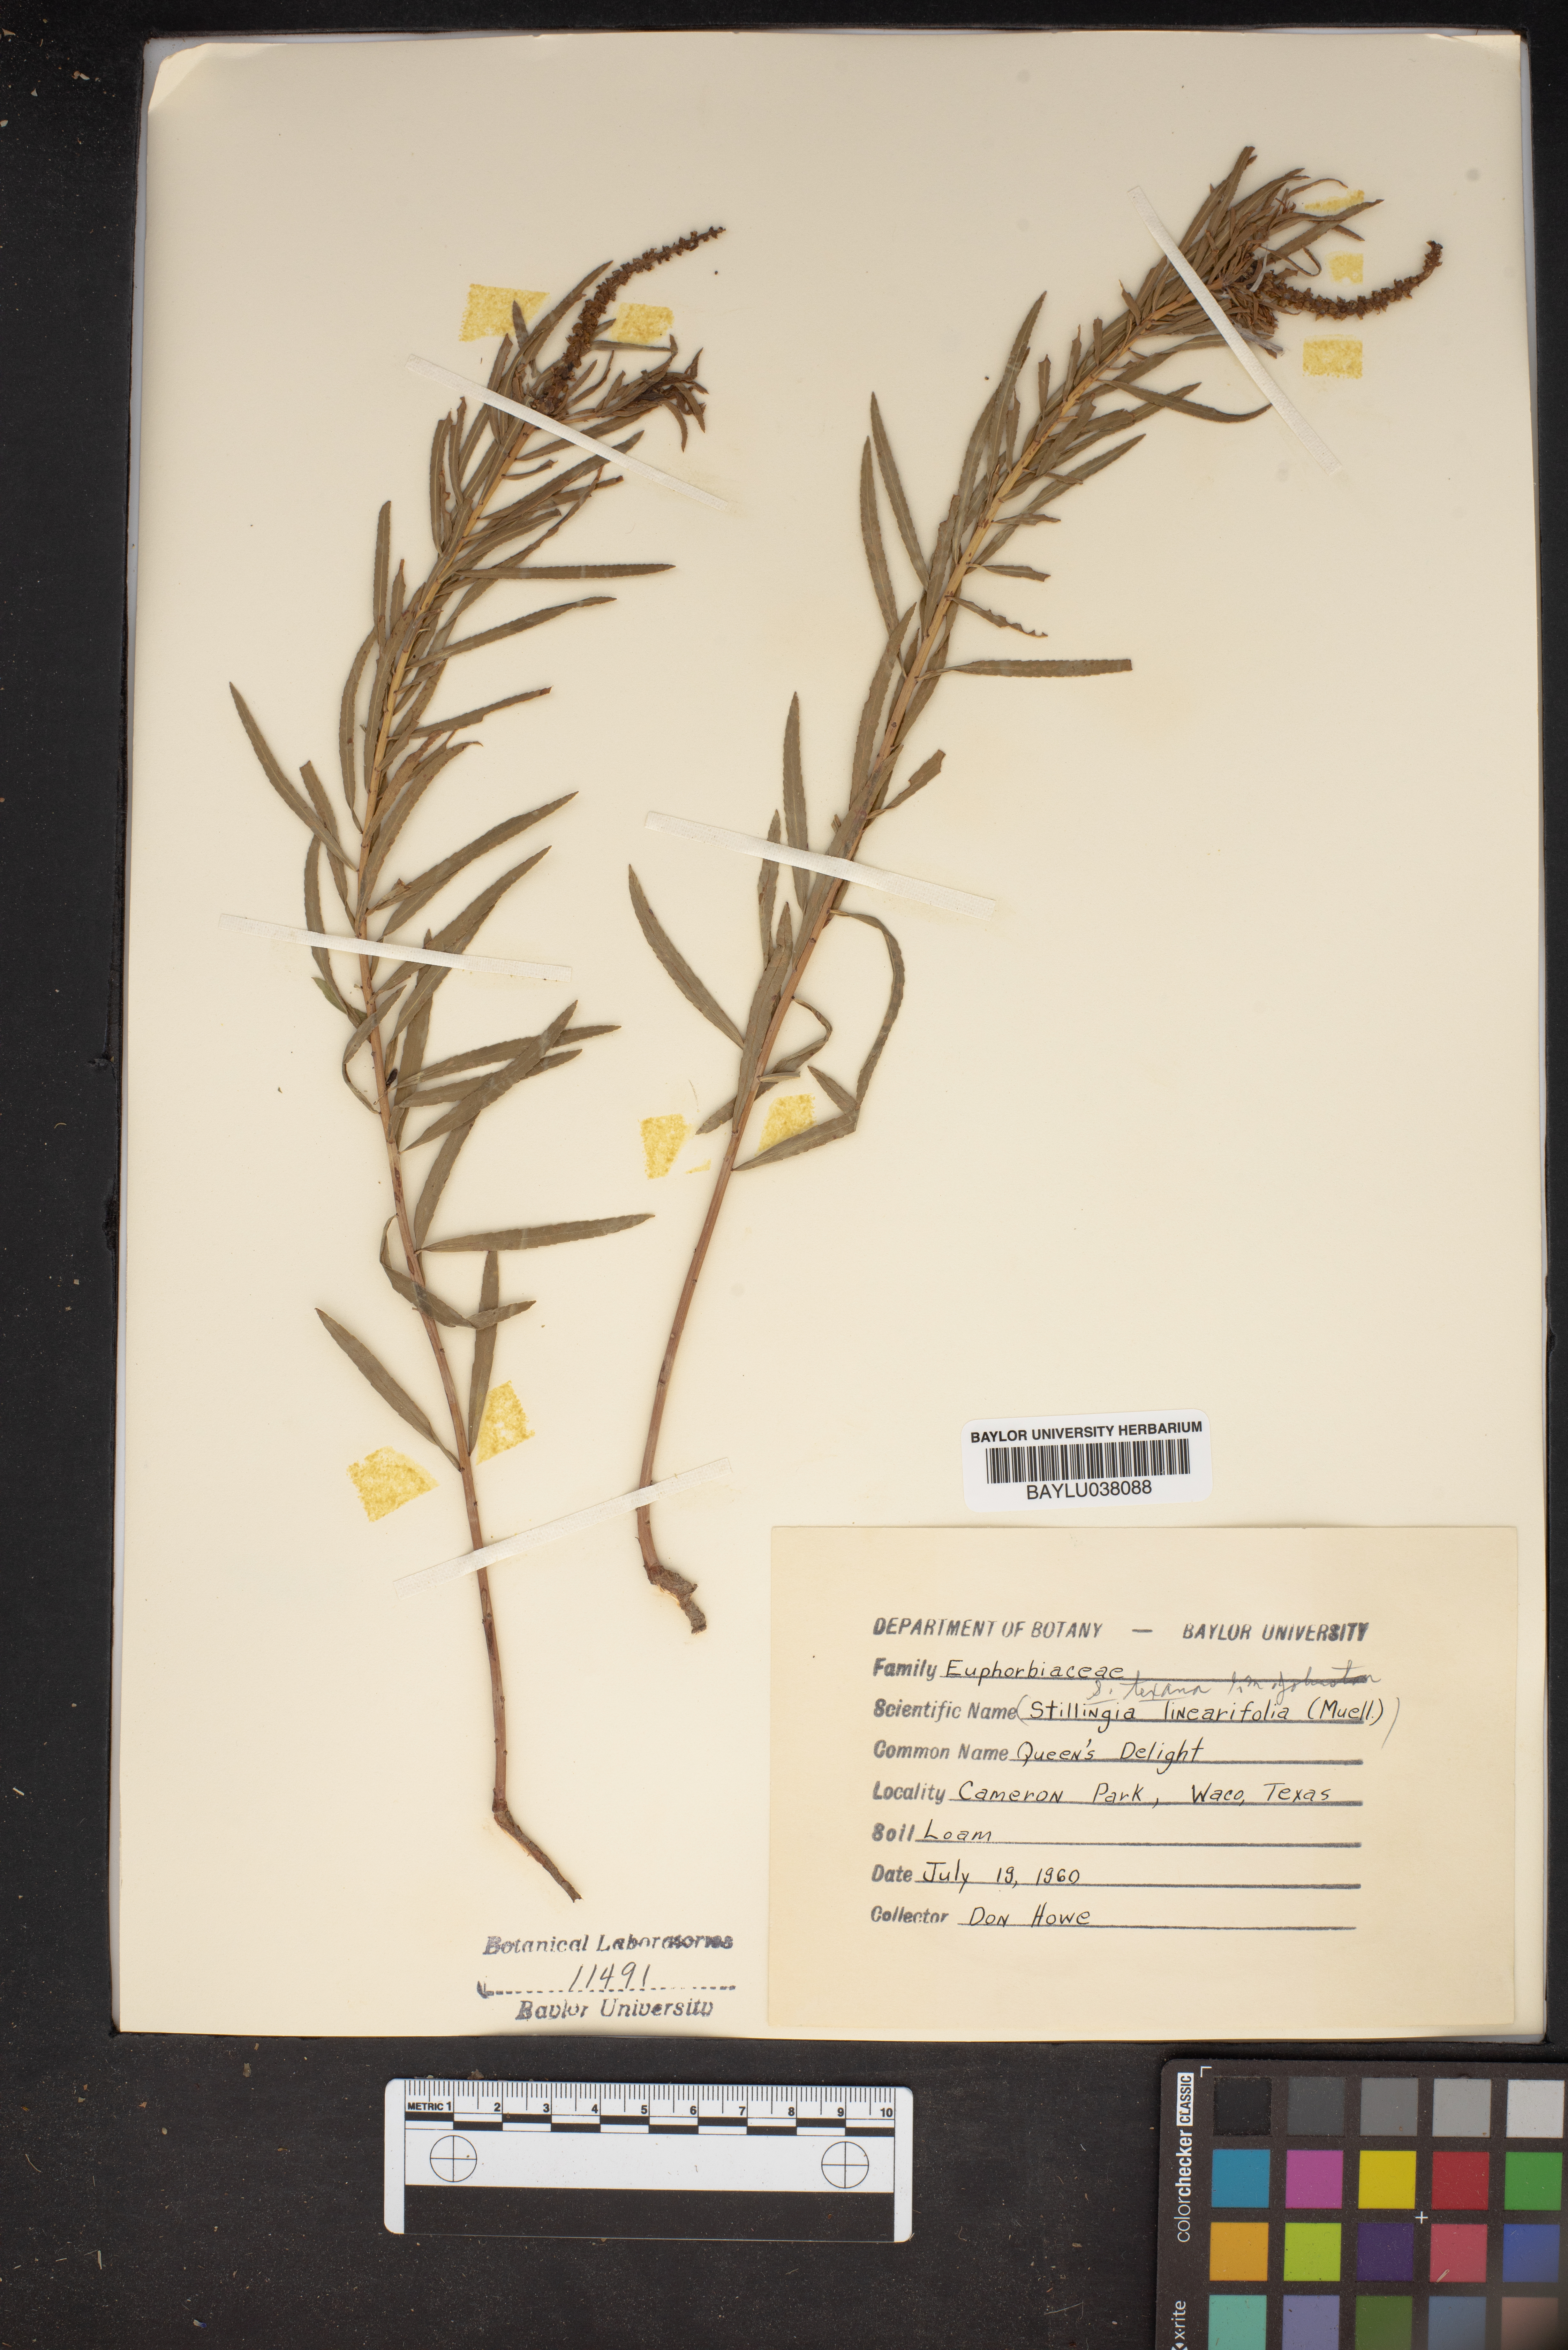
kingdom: Plantae
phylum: Tracheophyta
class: Magnoliopsida
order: Malpighiales
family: Euphorbiaceae
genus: Stillingia
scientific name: Stillingia linearifolia
